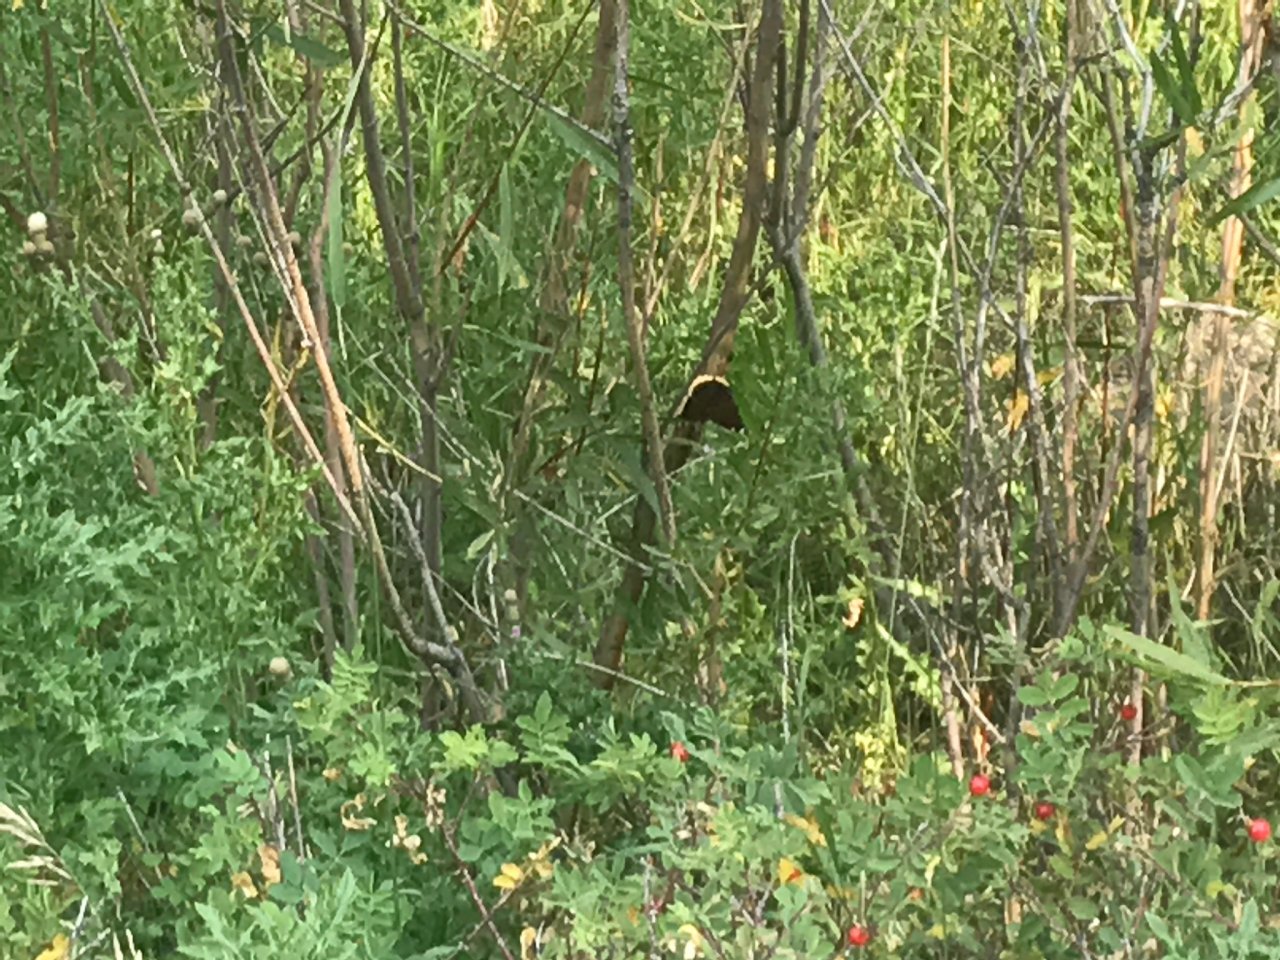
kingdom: Animalia
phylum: Arthropoda
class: Insecta
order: Lepidoptera
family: Nymphalidae
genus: Nymphalis
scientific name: Nymphalis antiopa
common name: Mourning Cloak
